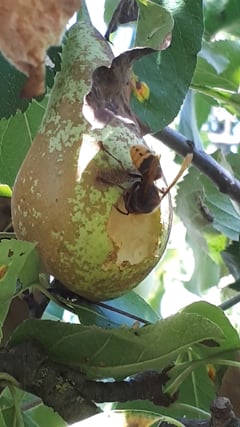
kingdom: Animalia
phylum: Arthropoda
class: Insecta
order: Hymenoptera
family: Vespidae
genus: Vespa
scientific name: Vespa crabro
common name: Hornet
